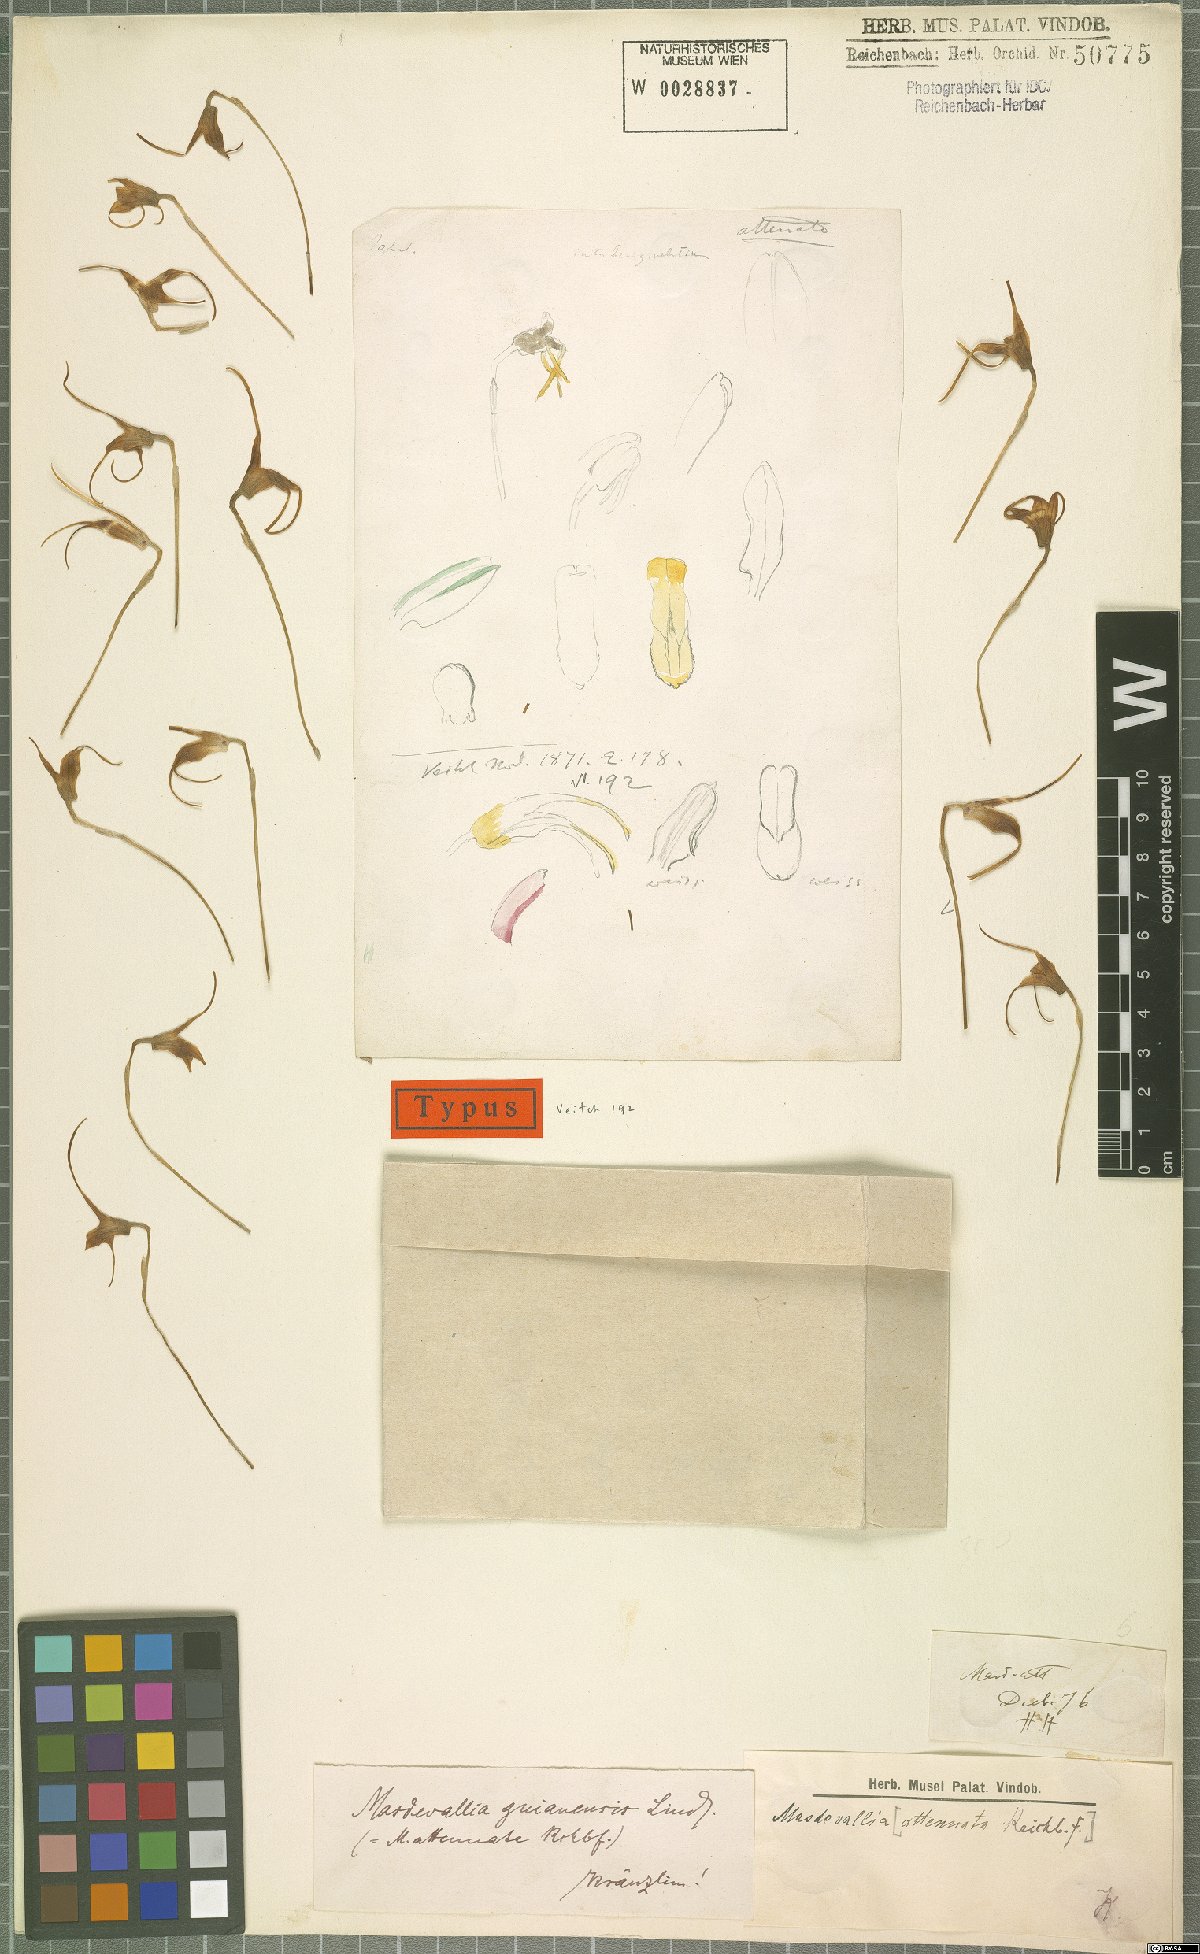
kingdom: Plantae
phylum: Tracheophyta
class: Liliopsida
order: Asparagales
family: Orchidaceae
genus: Masdevallia
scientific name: Masdevallia attenuata
